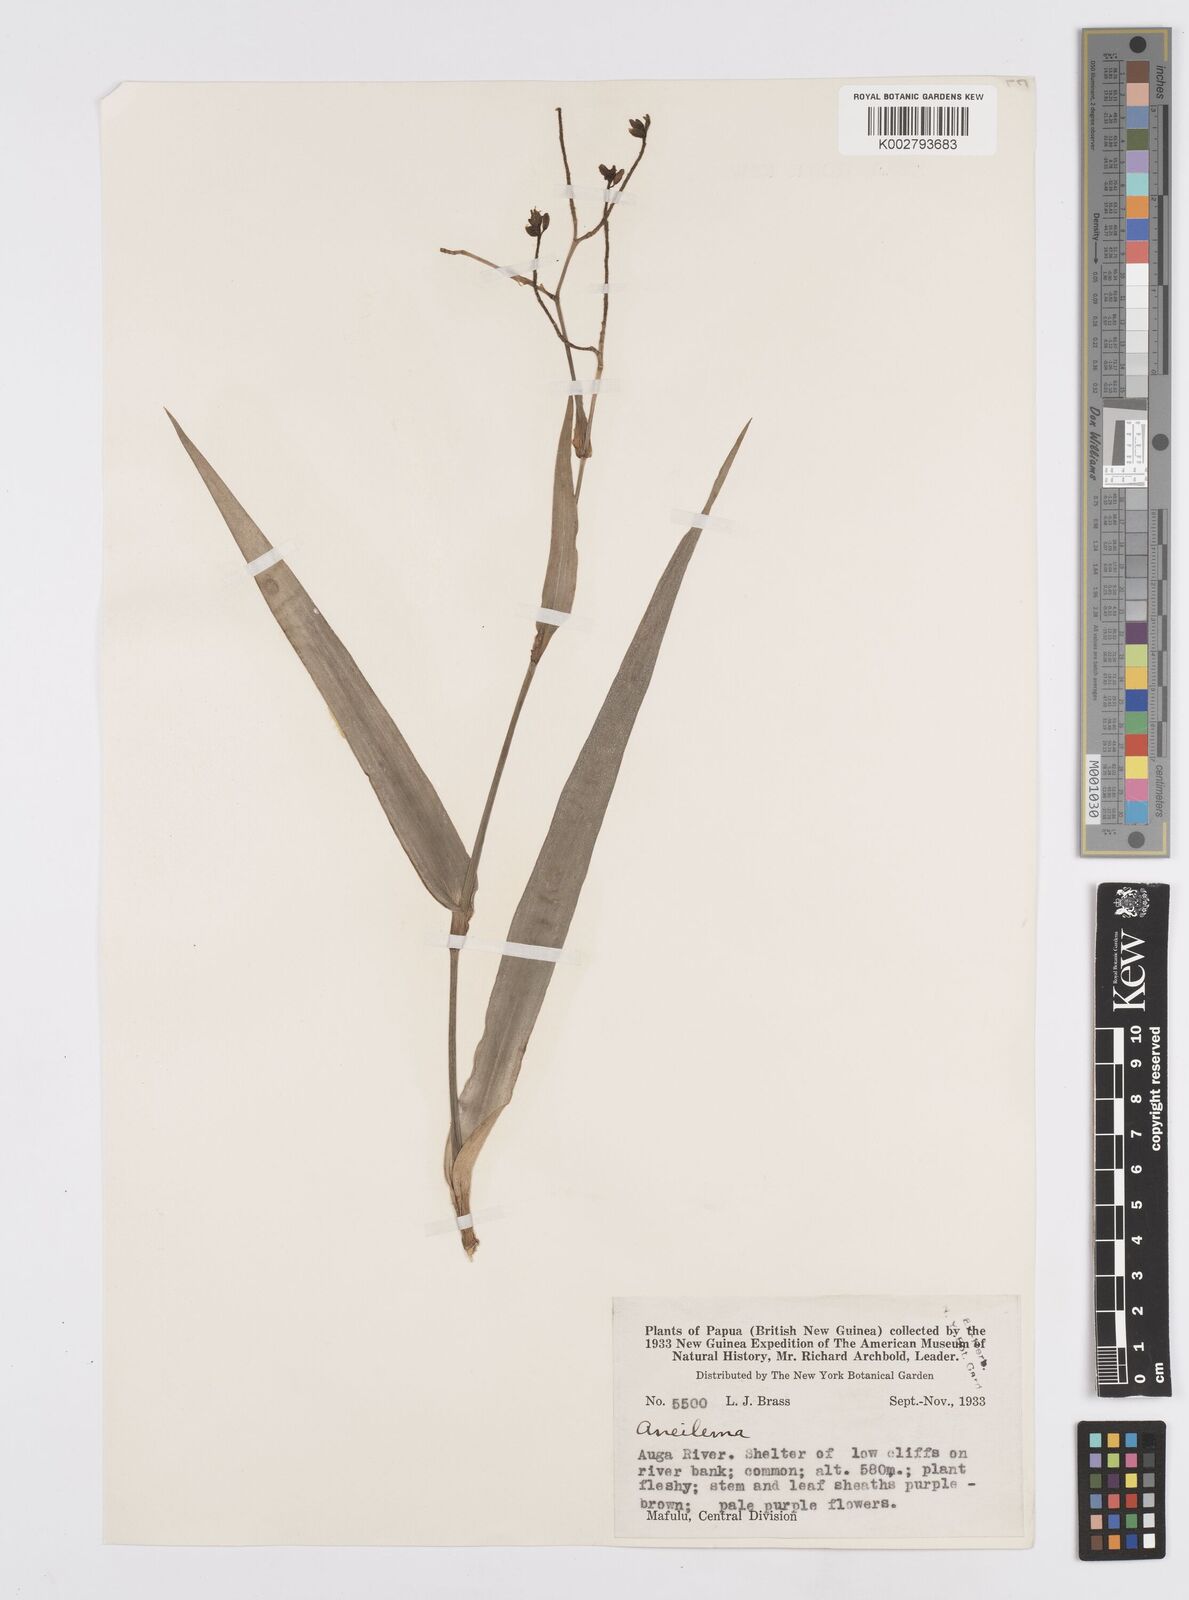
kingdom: Plantae
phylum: Tracheophyta
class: Liliopsida
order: Commelinales
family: Commelinaceae
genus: Murdannia
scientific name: Murdannia
